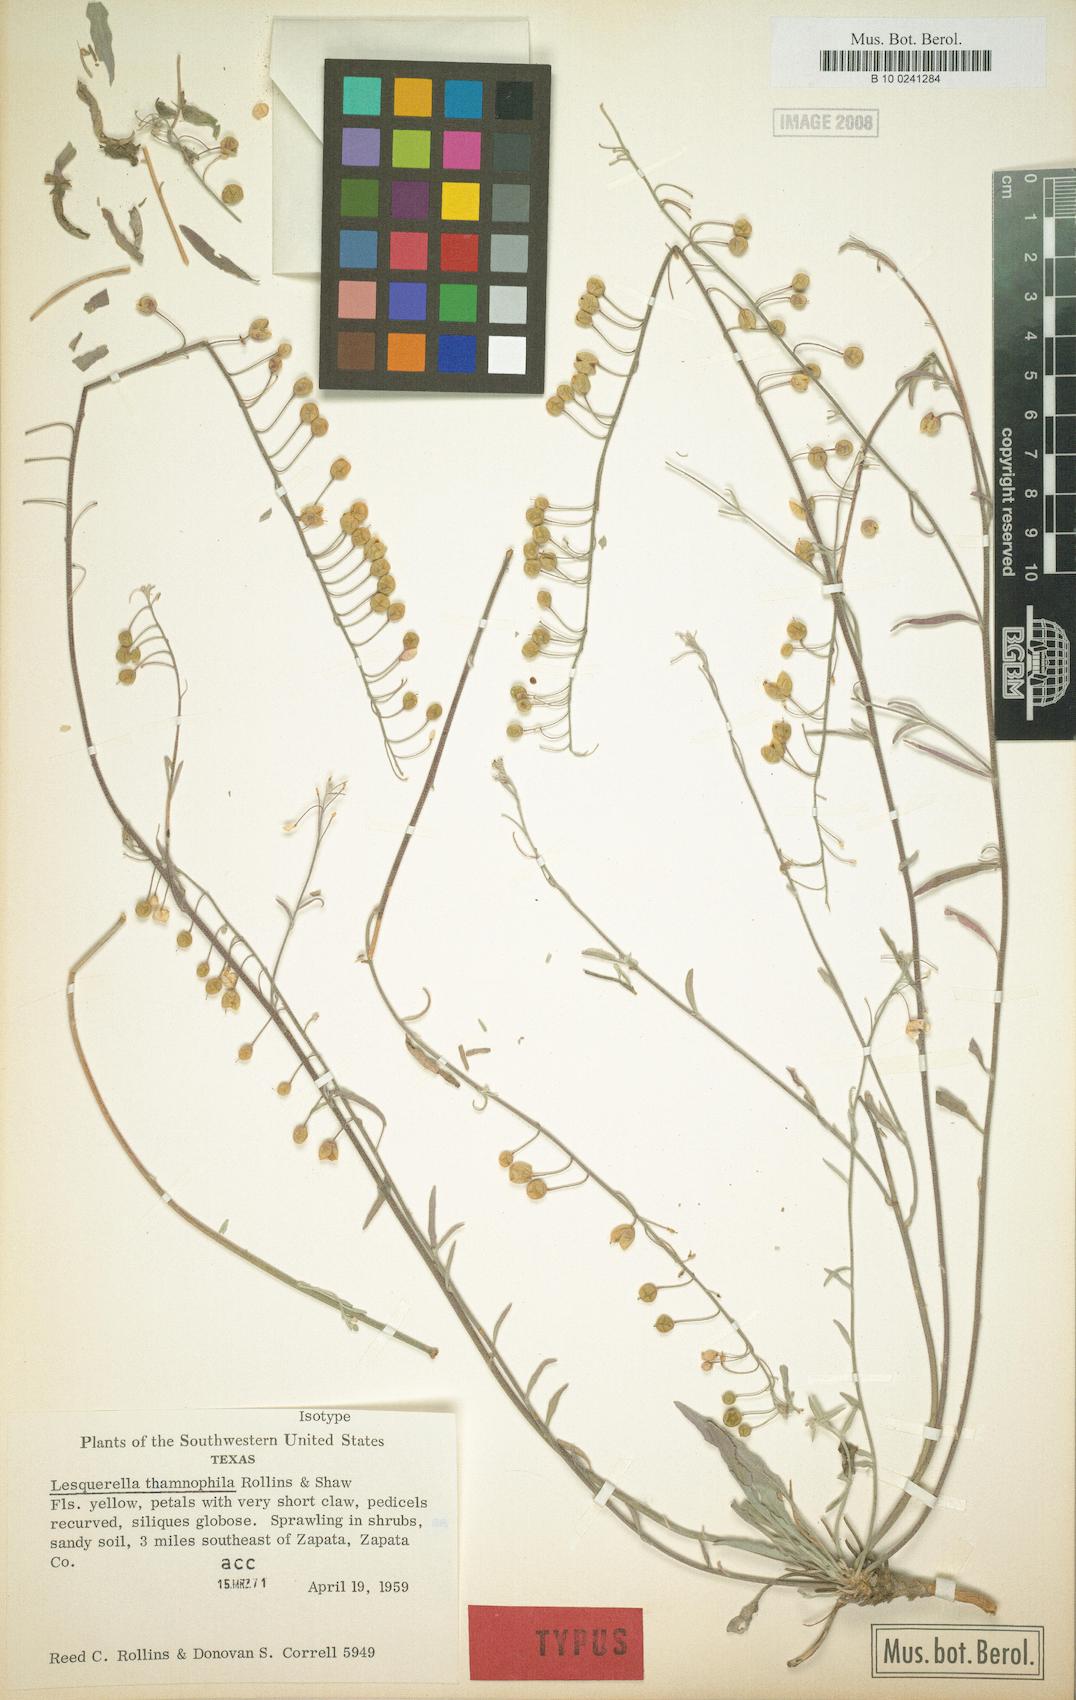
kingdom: Plantae
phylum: Tracheophyta
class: Magnoliopsida
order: Brassicales
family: Brassicaceae
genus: Physaria
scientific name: Physaria thamnophila
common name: Zapata bladderpod
